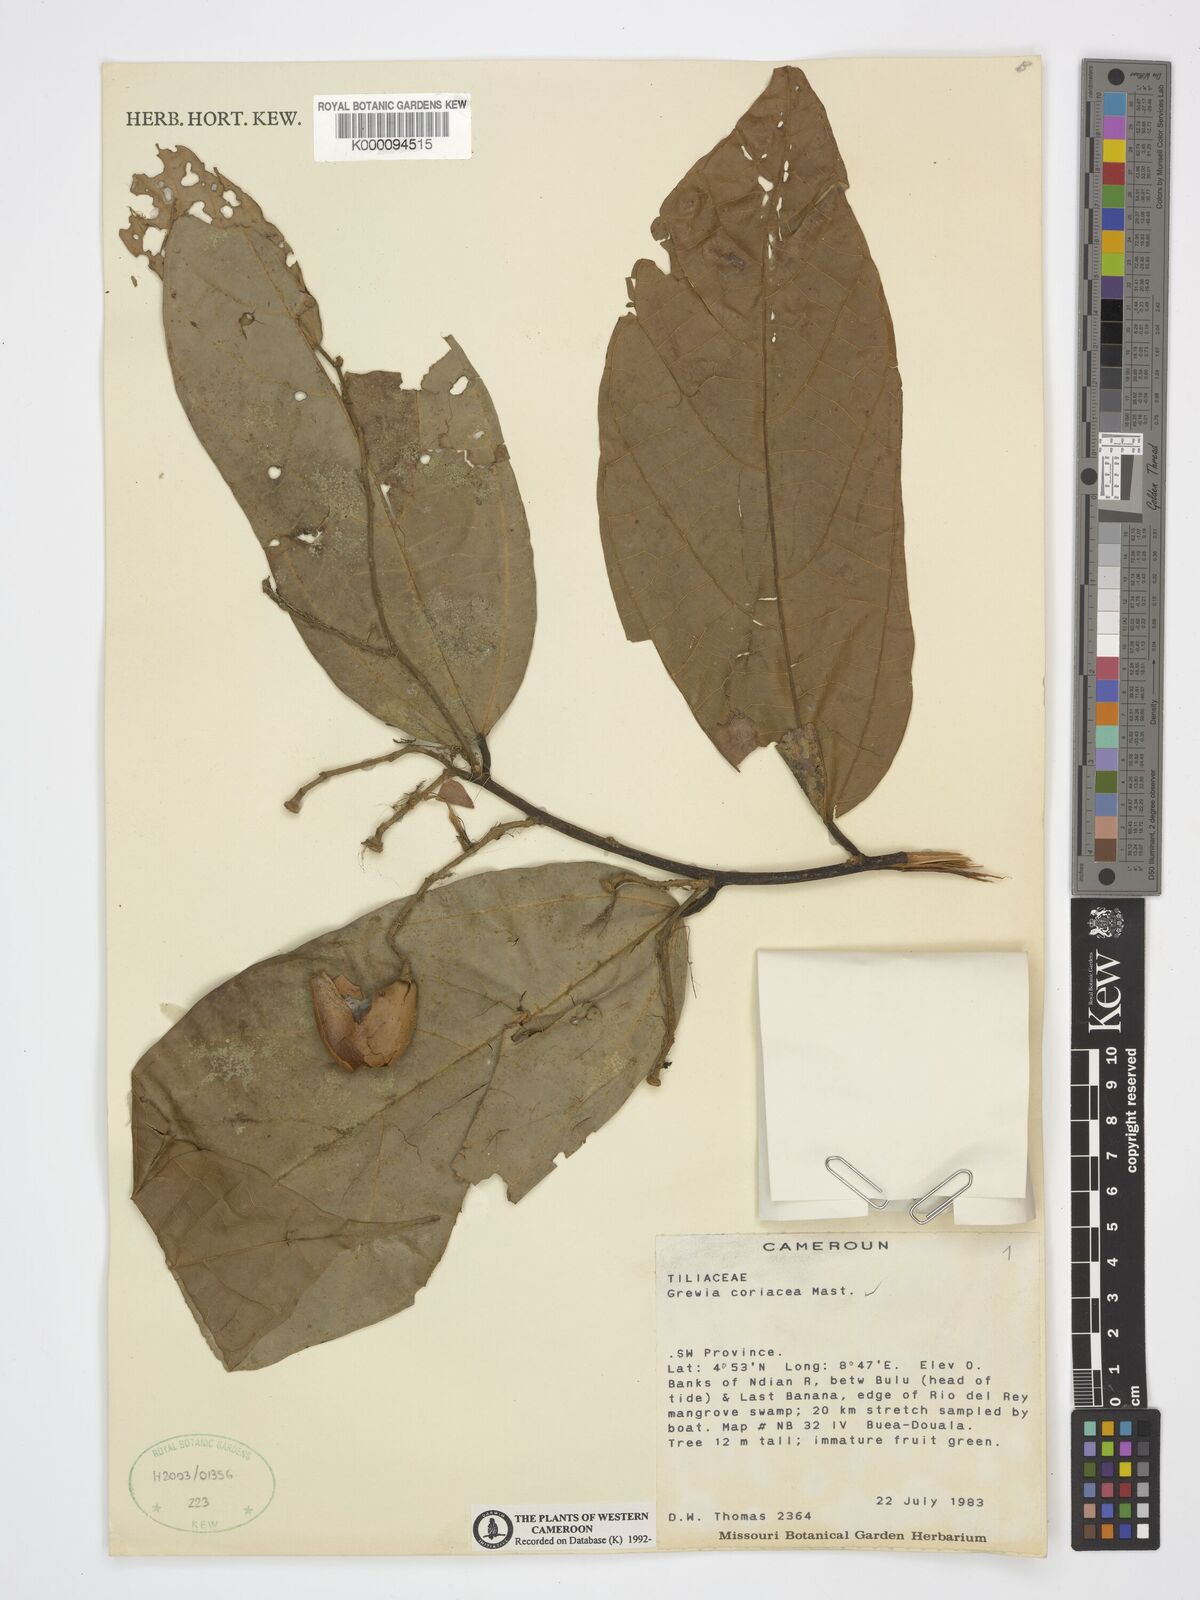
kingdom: Plantae
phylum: Tracheophyta
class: Magnoliopsida
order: Malvales
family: Malvaceae
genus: Microcos
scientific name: Microcos coriacea
